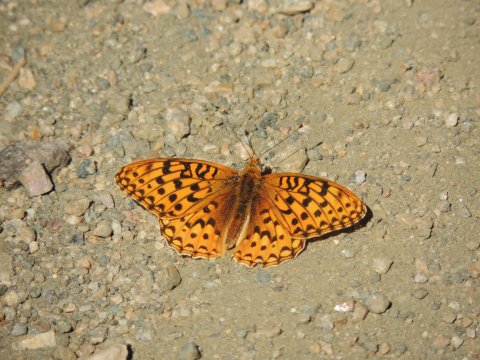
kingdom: Animalia
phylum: Arthropoda
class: Insecta
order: Lepidoptera
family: Nymphalidae
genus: Speyeria
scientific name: Speyeria coronis
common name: Coronis Fritillary
